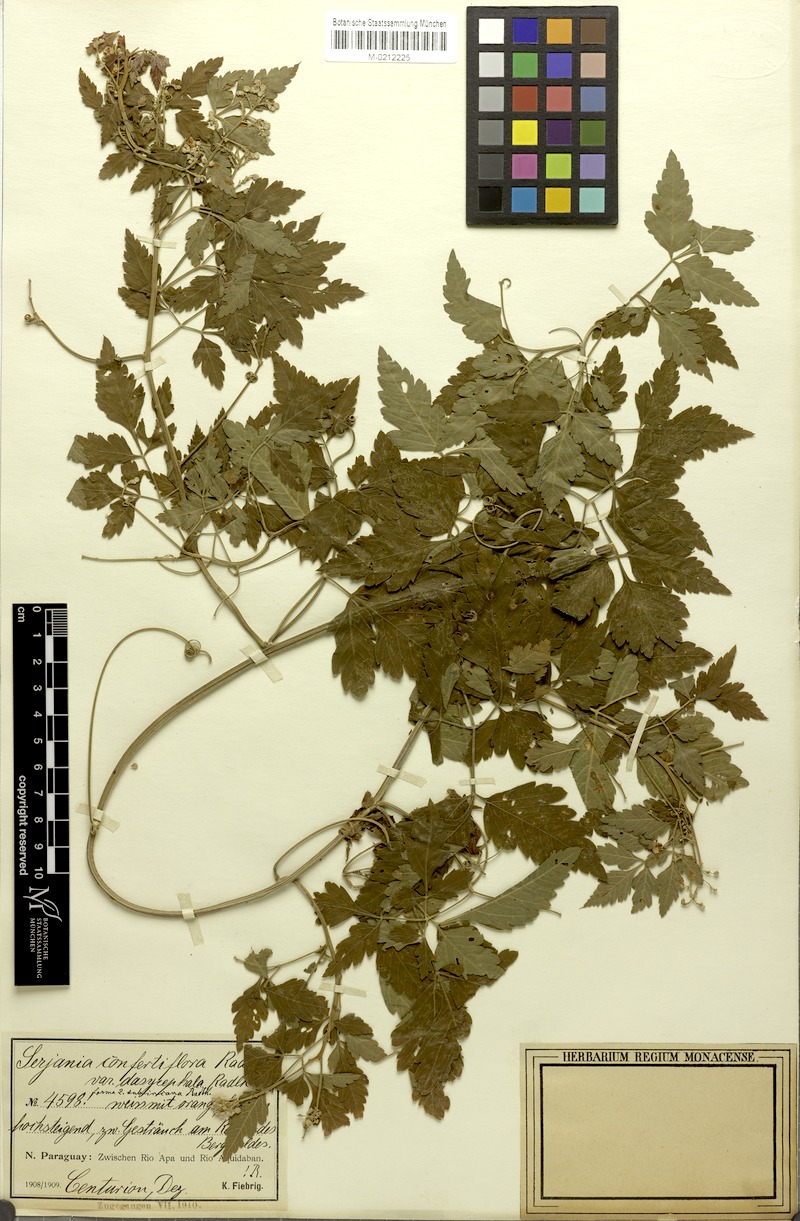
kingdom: Plantae
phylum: Tracheophyta
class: Magnoliopsida
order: Sapindales
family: Sapindaceae
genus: Serjania
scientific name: Serjania confertiflora
